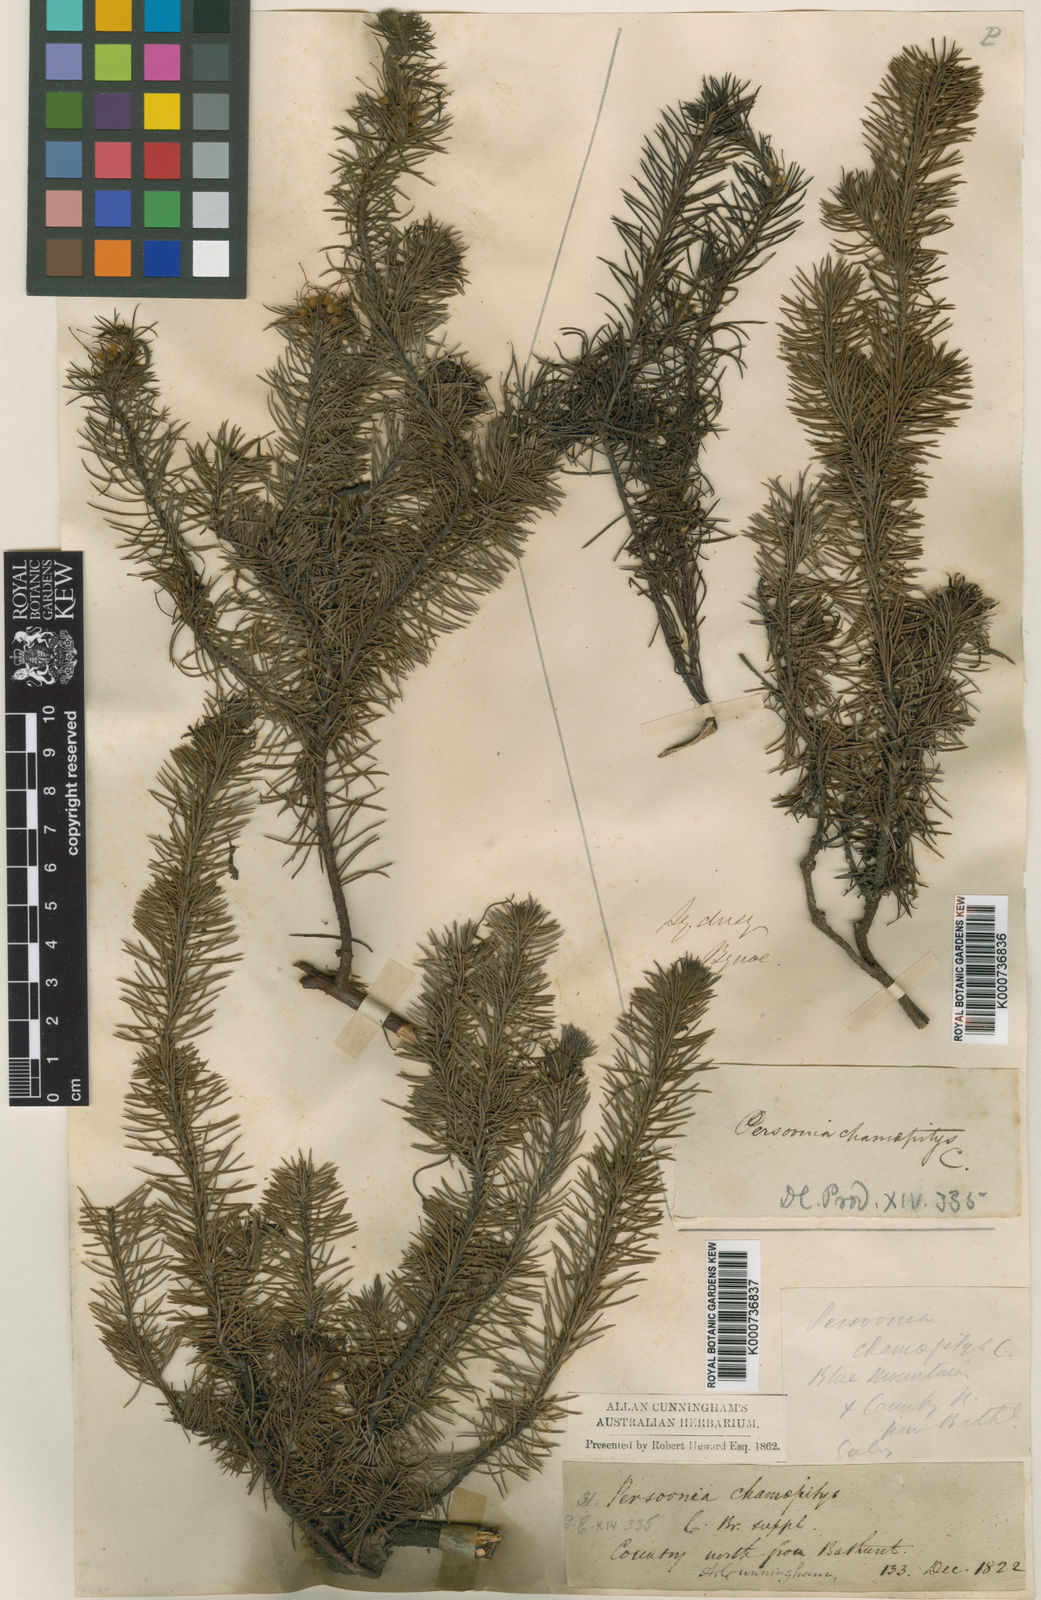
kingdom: Plantae
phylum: Tracheophyta
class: Magnoliopsida
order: Proteales
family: Proteaceae
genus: Persoonia
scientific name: Persoonia chamaepitys
